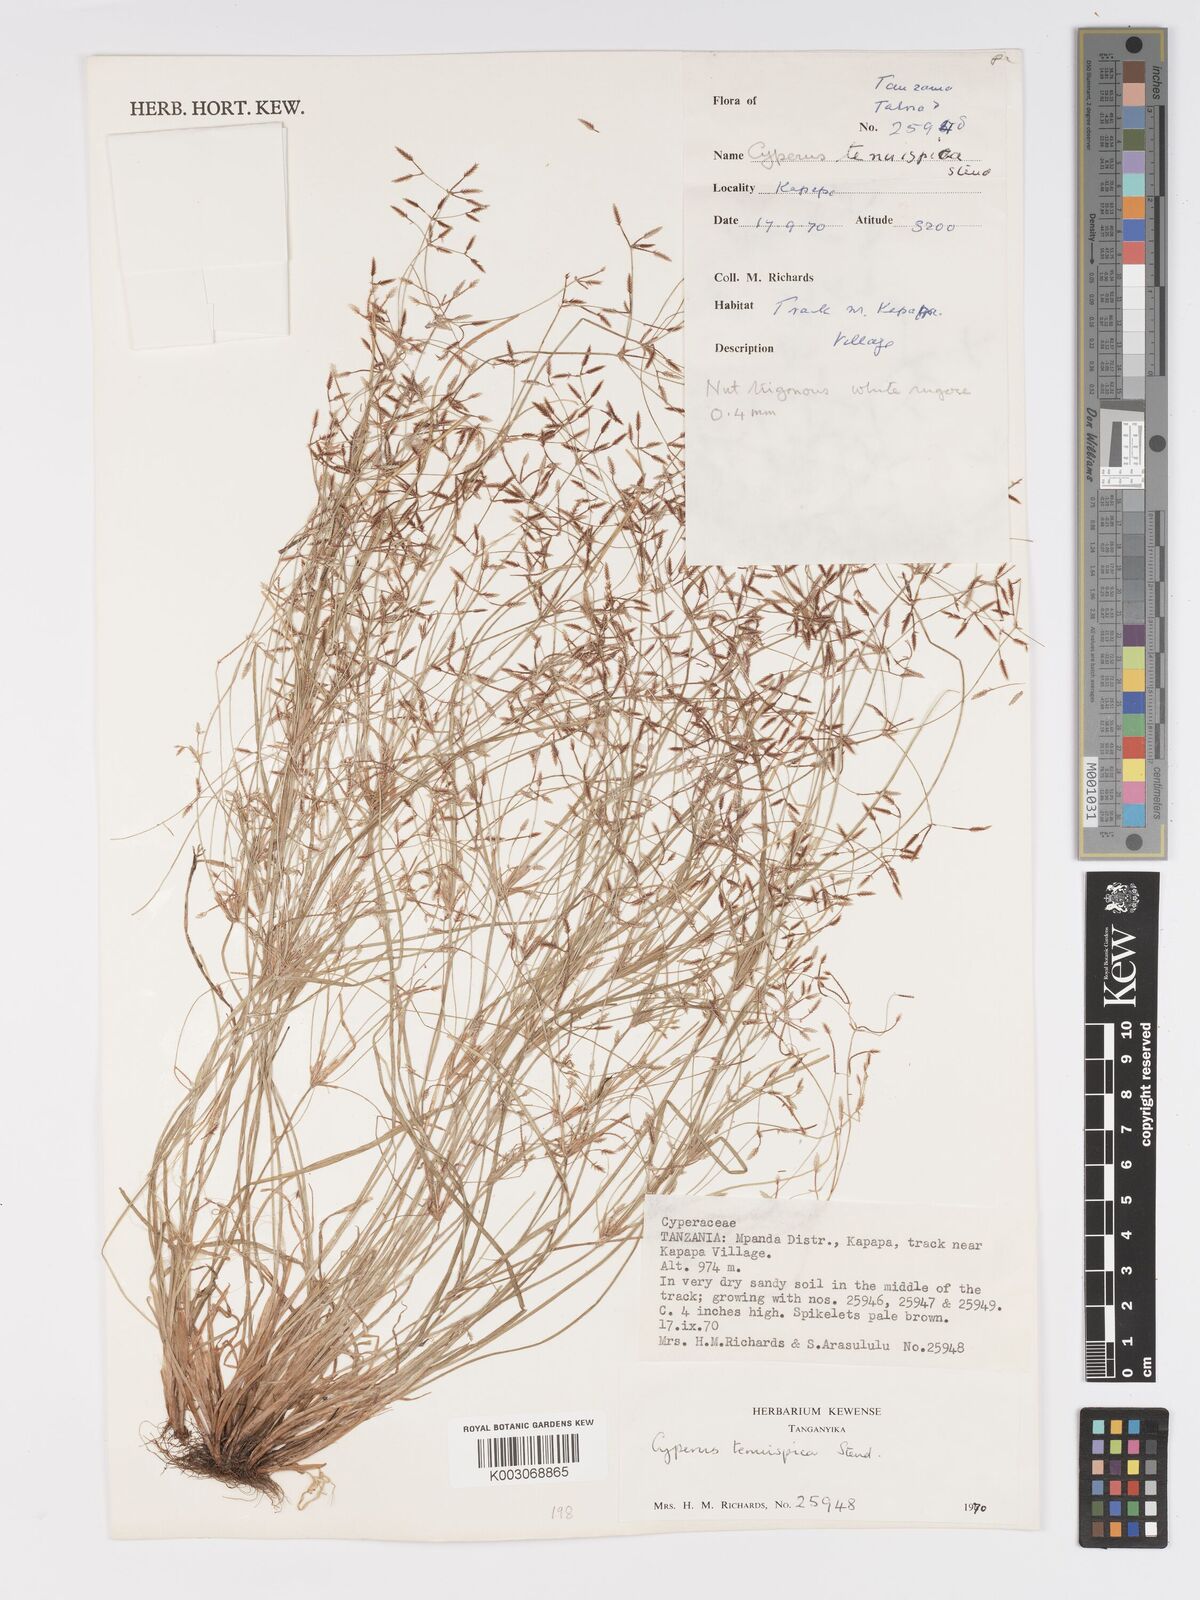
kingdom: Plantae
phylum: Tracheophyta
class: Liliopsida
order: Poales
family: Cyperaceae
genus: Cyperus
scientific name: Cyperus tenuispica
